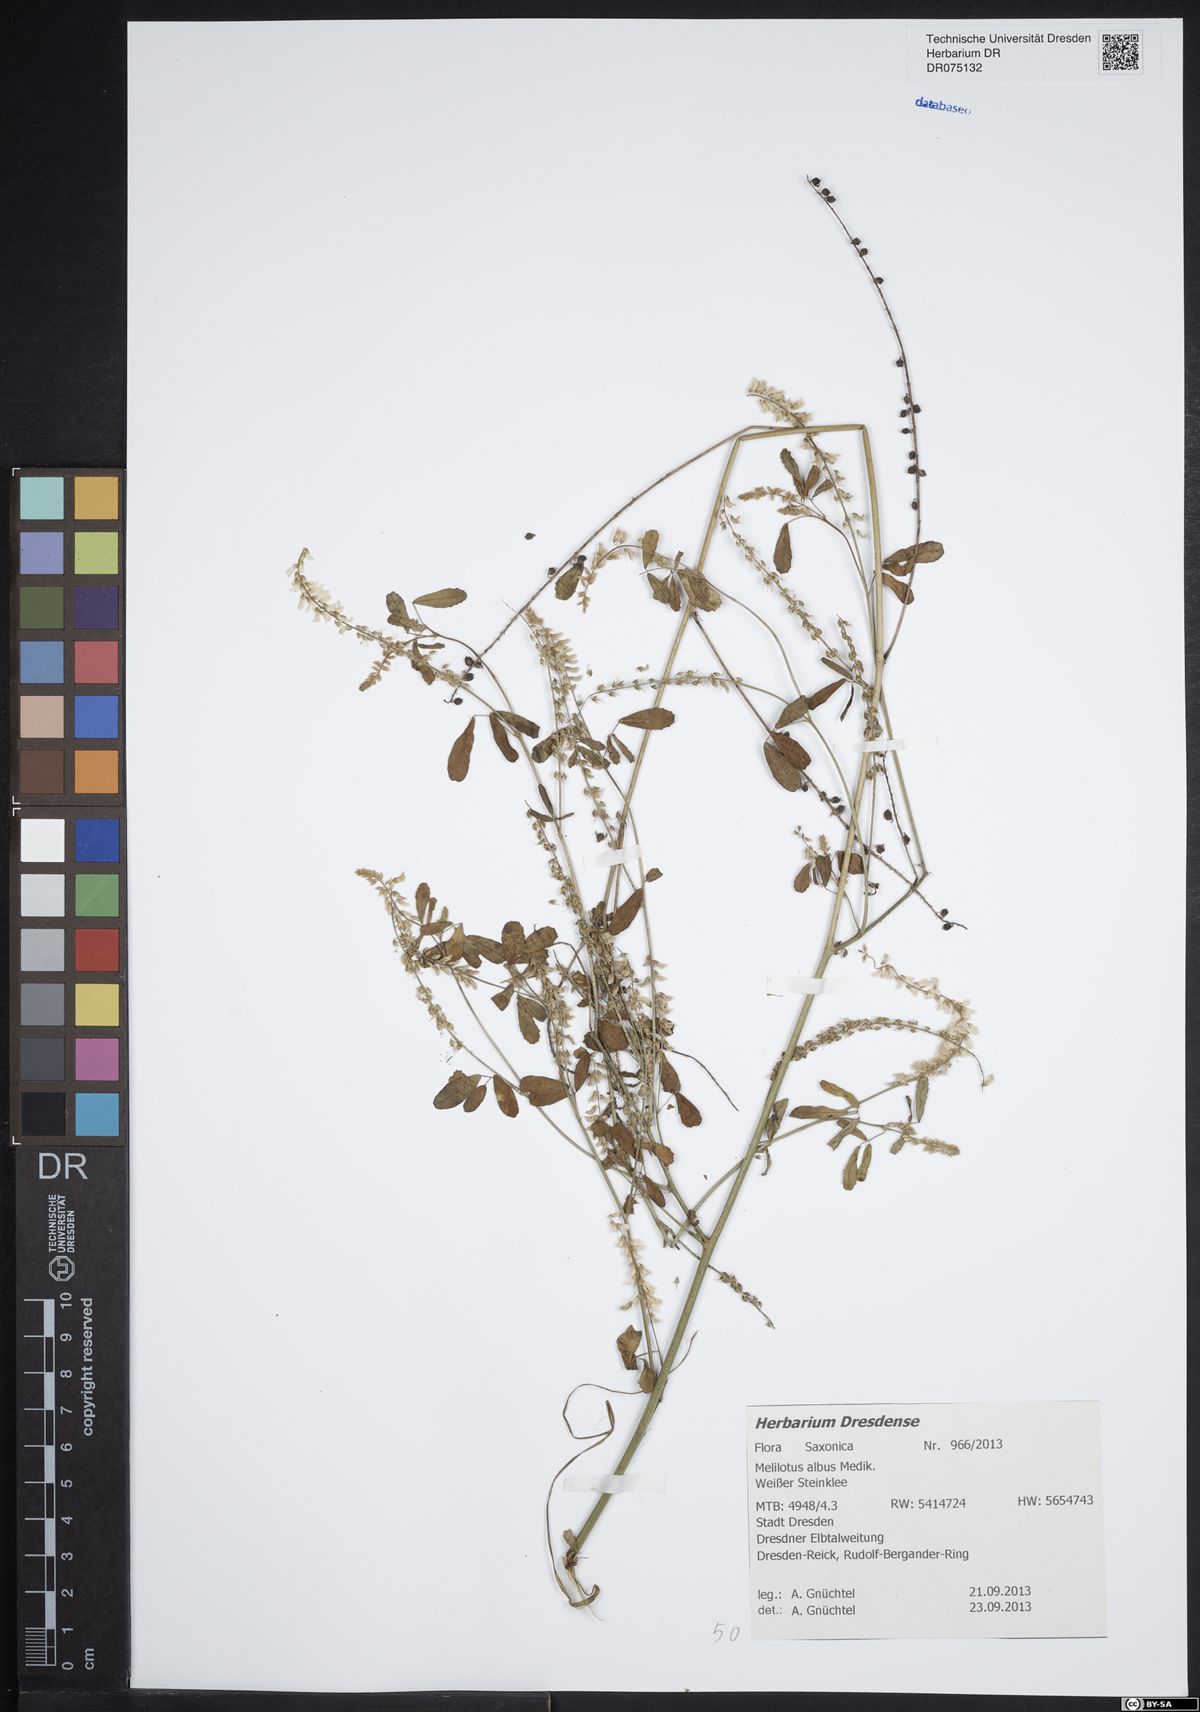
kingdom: Plantae
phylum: Tracheophyta
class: Magnoliopsida
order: Fabales
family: Fabaceae
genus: Melilotus
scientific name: Melilotus albus
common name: White melilot
